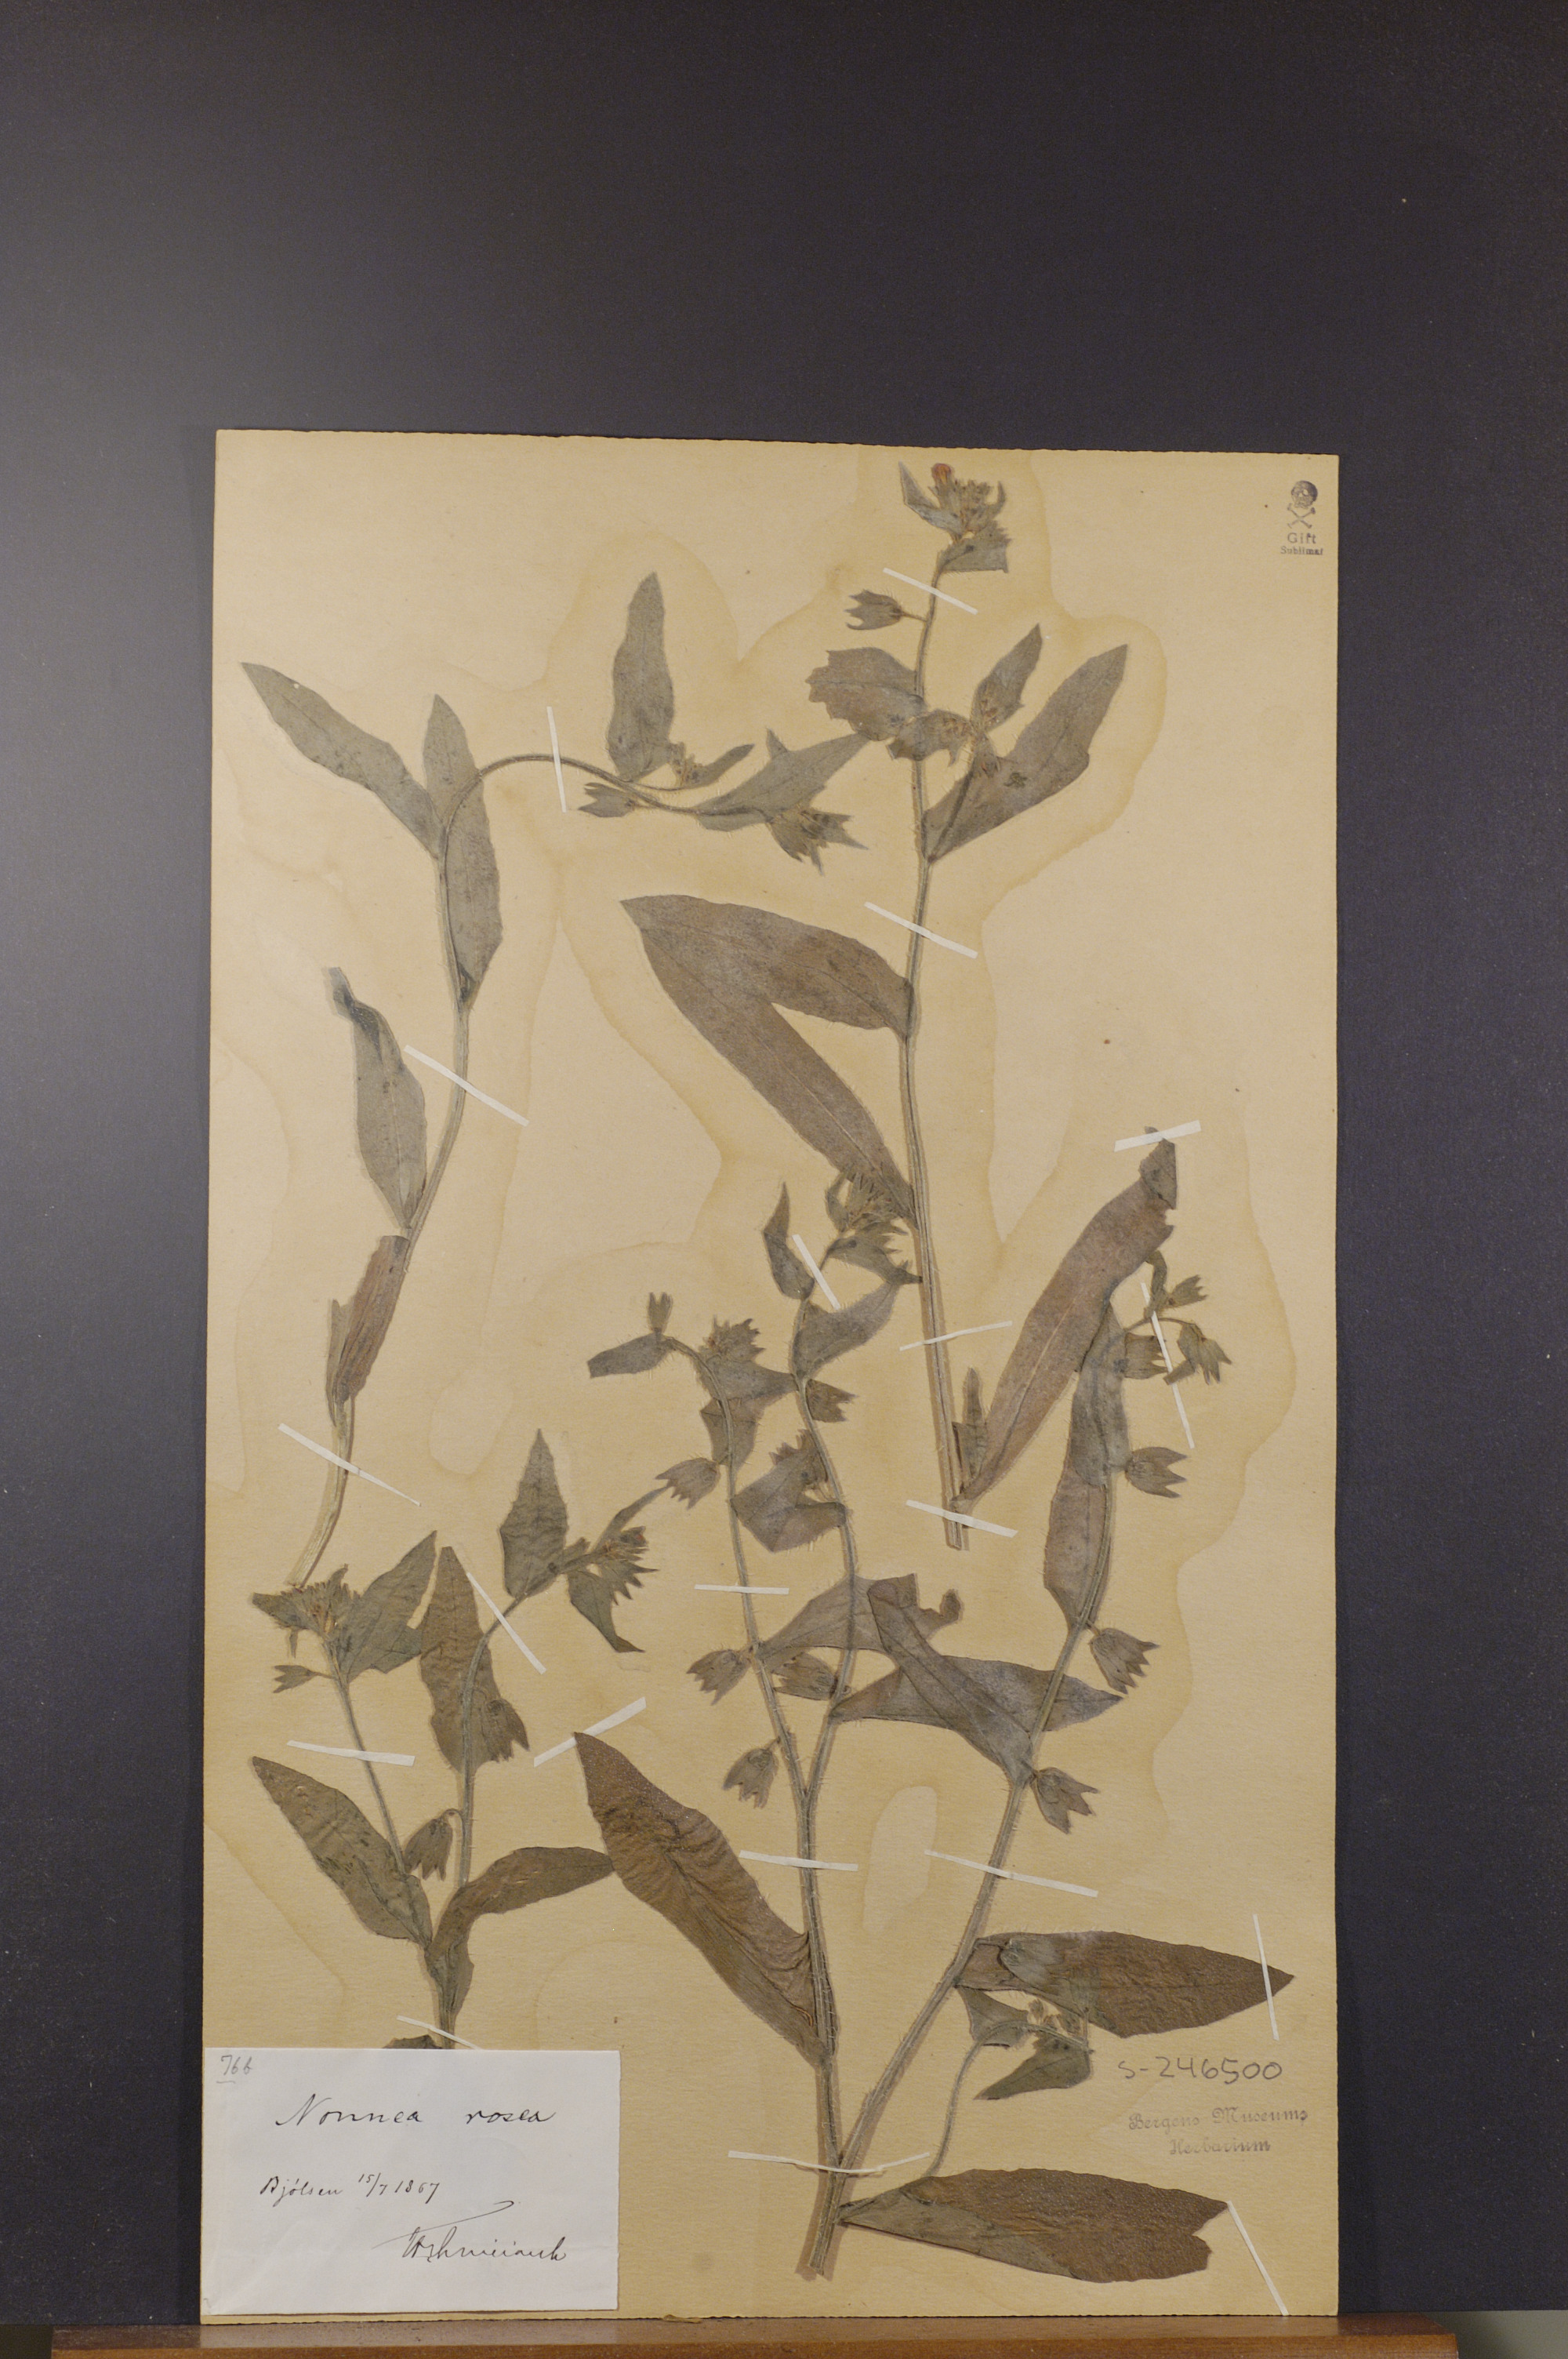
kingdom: Plantae
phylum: Tracheophyta
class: Magnoliopsida
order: Boraginales
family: Boraginaceae
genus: Nonea
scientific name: Nonea versicolor
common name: Varied monkswort
